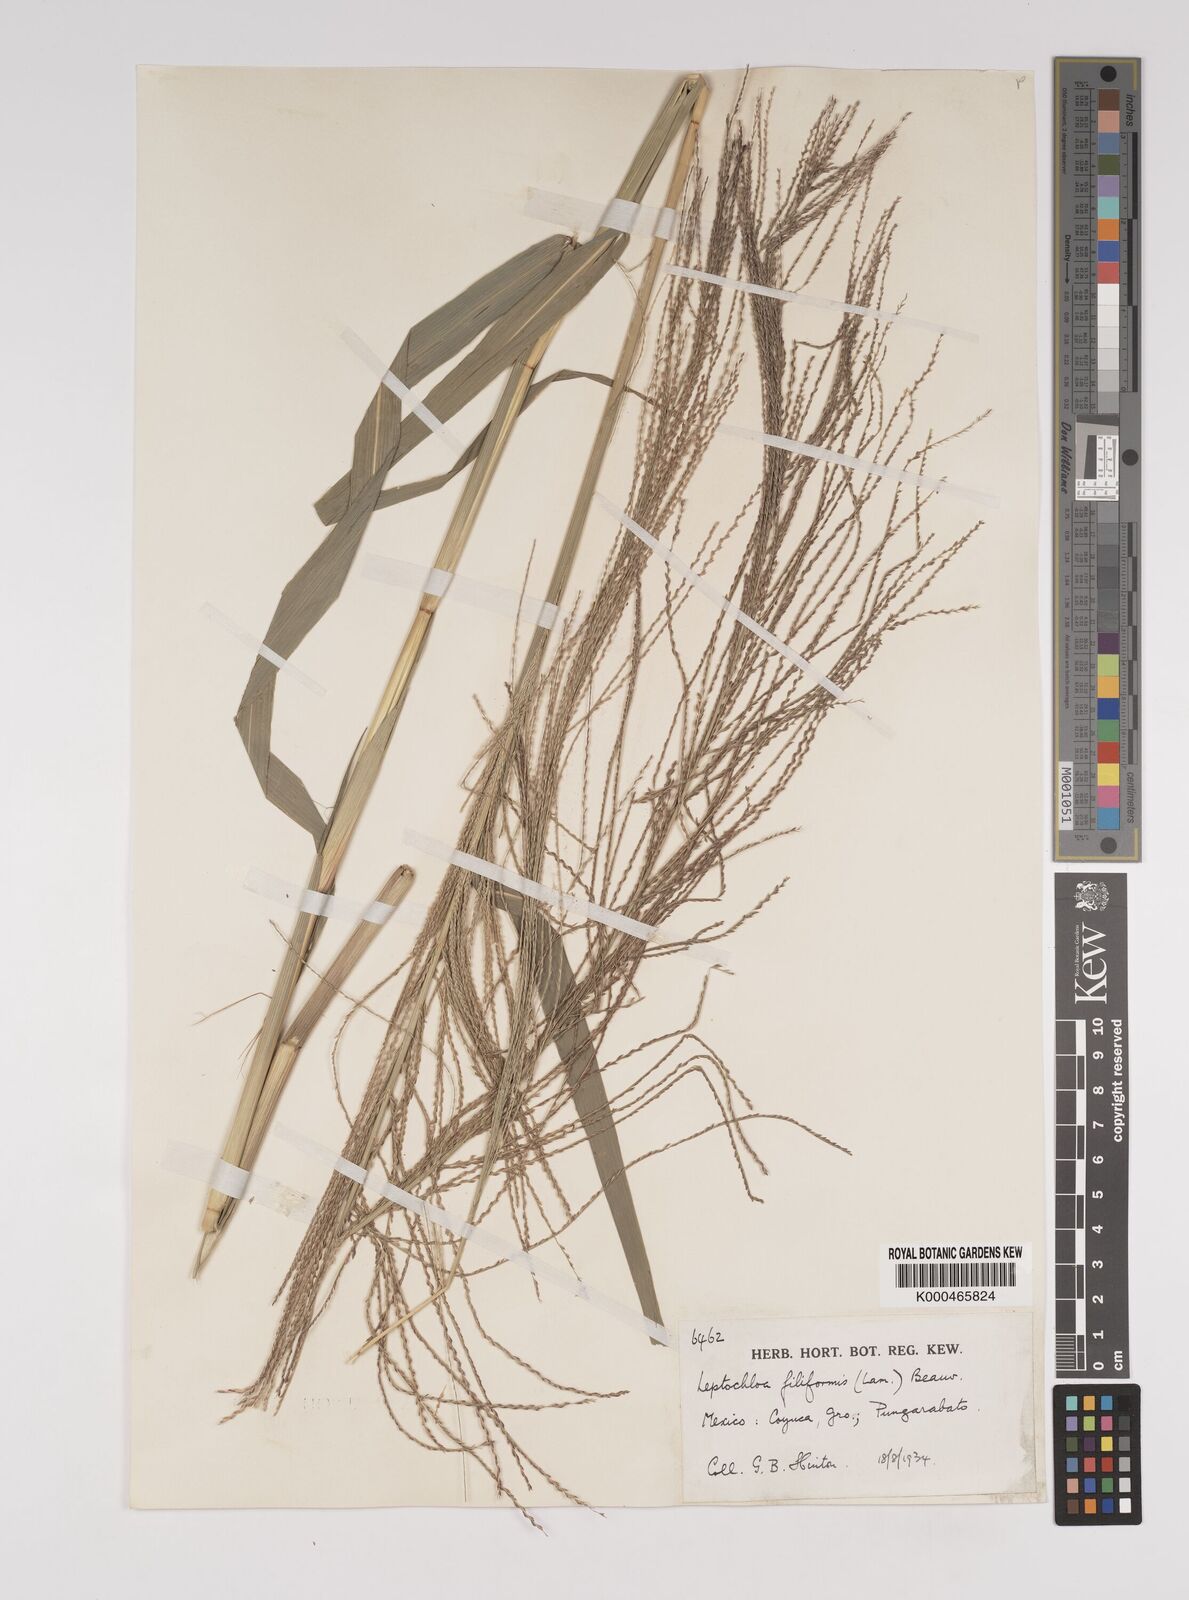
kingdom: Plantae
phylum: Tracheophyta
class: Liliopsida
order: Poales
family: Poaceae
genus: Leptochloa
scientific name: Leptochloa panicea
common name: Mucronate sprangletop
